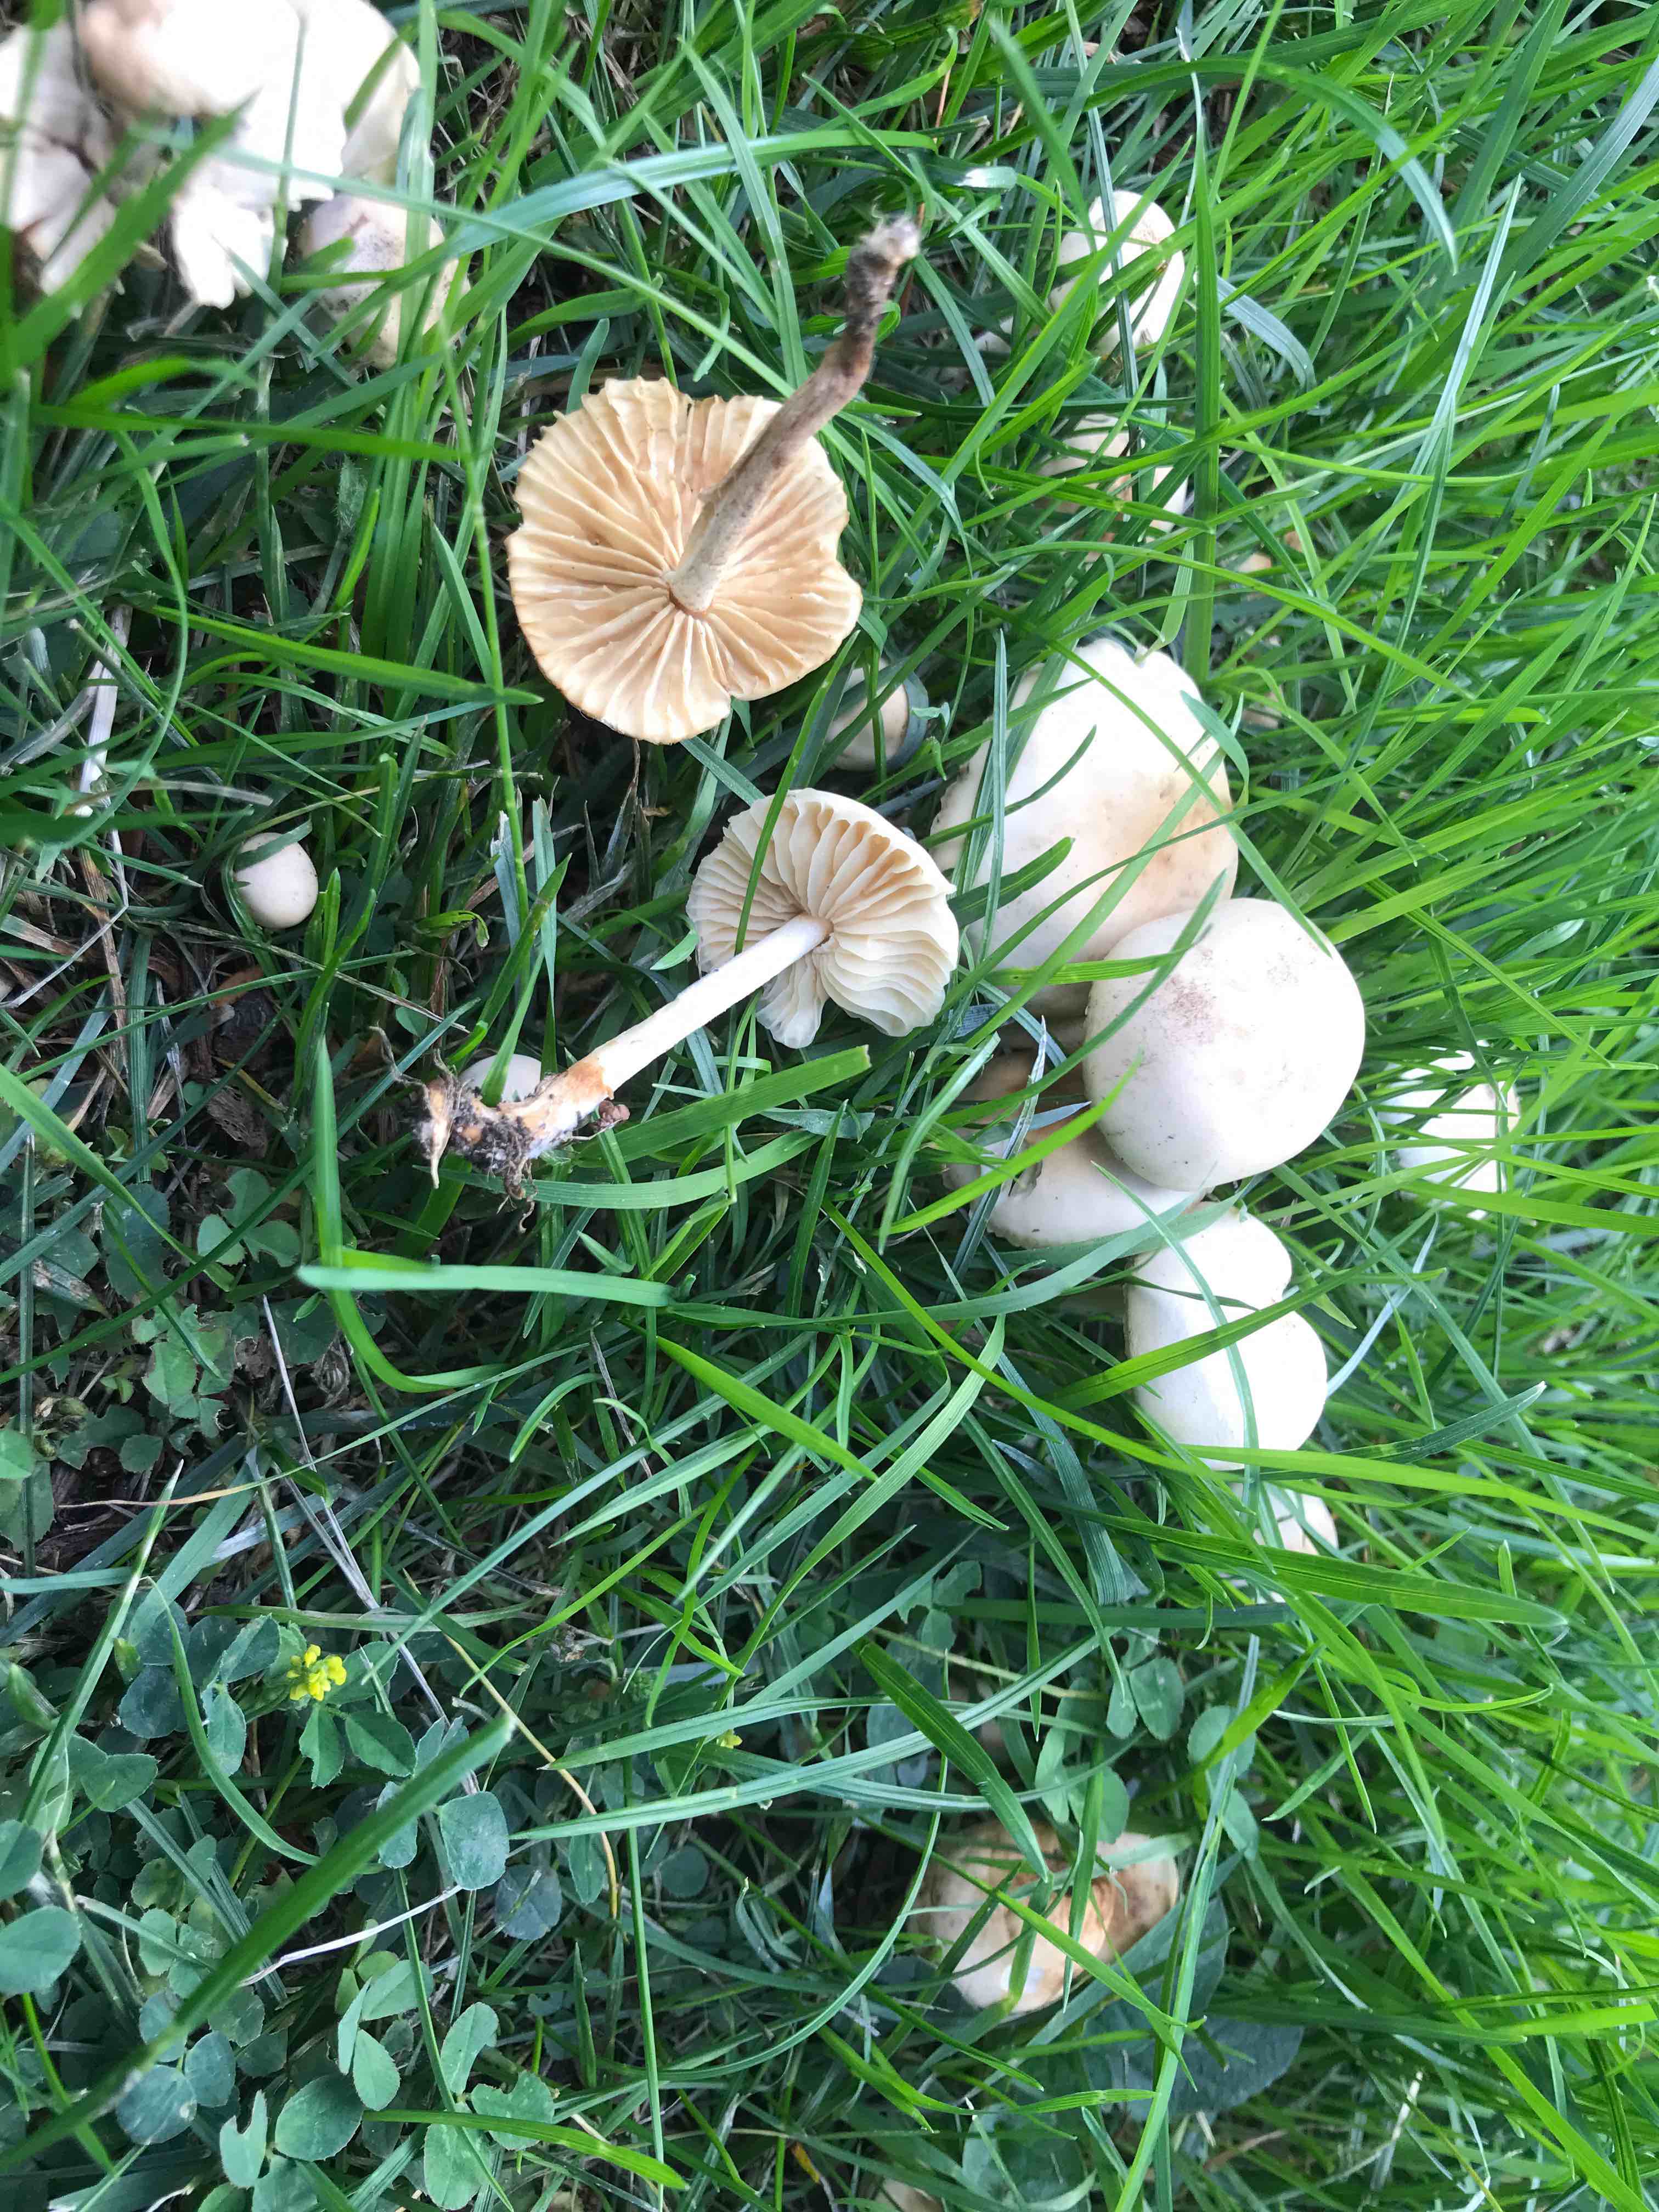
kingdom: Fungi
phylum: Basidiomycota
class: Agaricomycetes
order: Agaricales
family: Marasmiaceae
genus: Marasmius
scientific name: Marasmius oreades
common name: elledans-bruskhat
